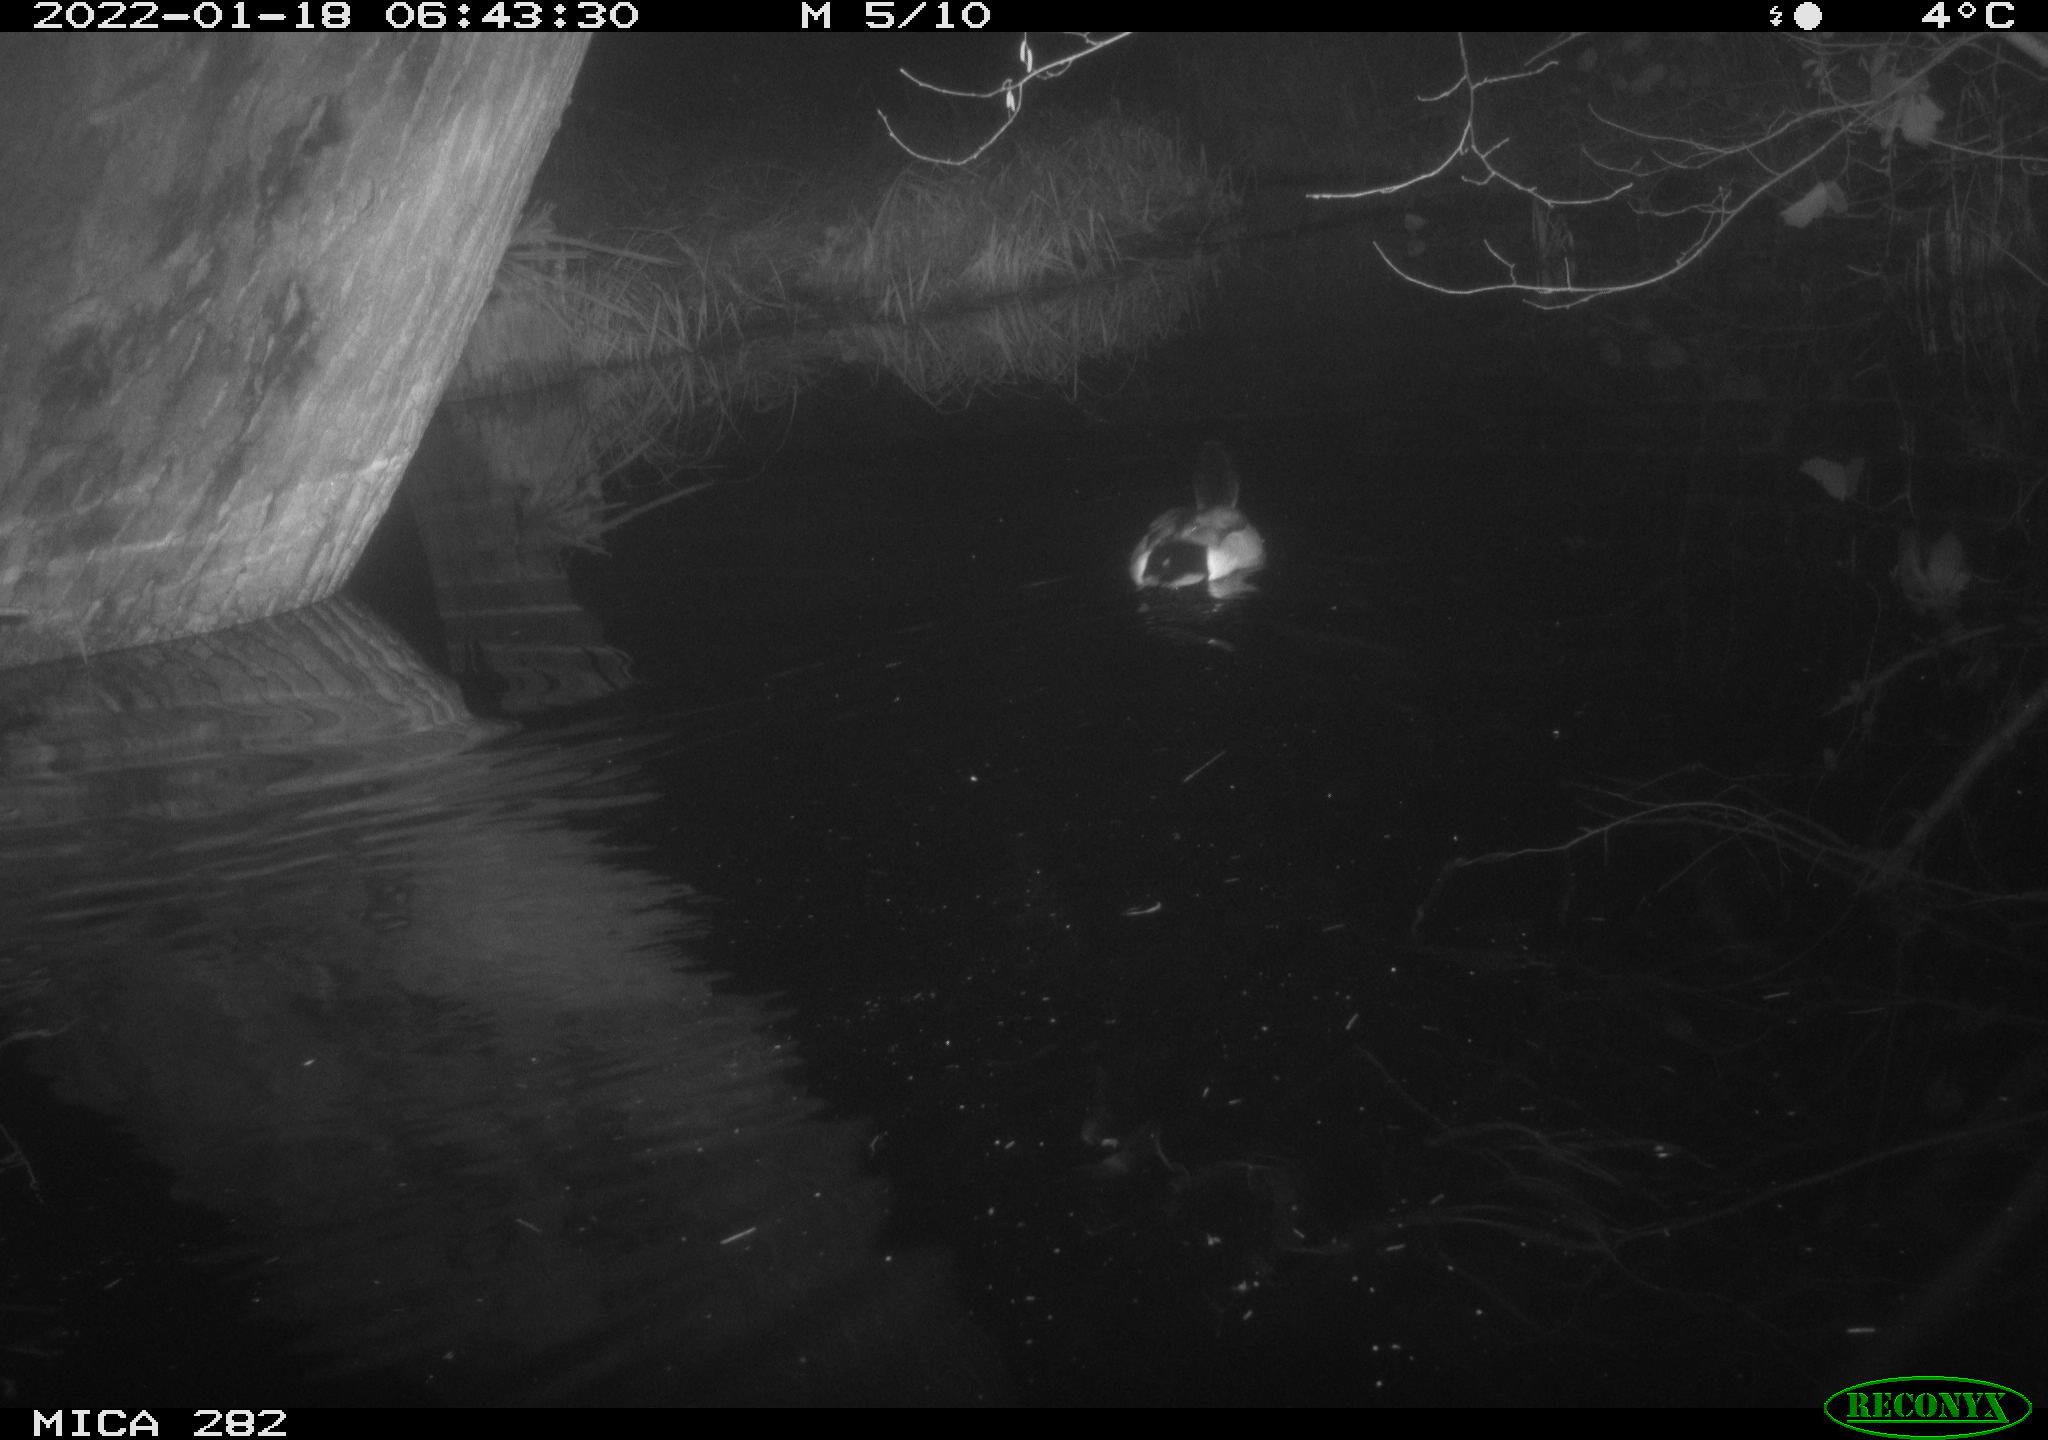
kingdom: Animalia
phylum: Chordata
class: Aves
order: Anseriformes
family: Anatidae
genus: Anas
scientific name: Anas platyrhynchos
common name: Mallard
